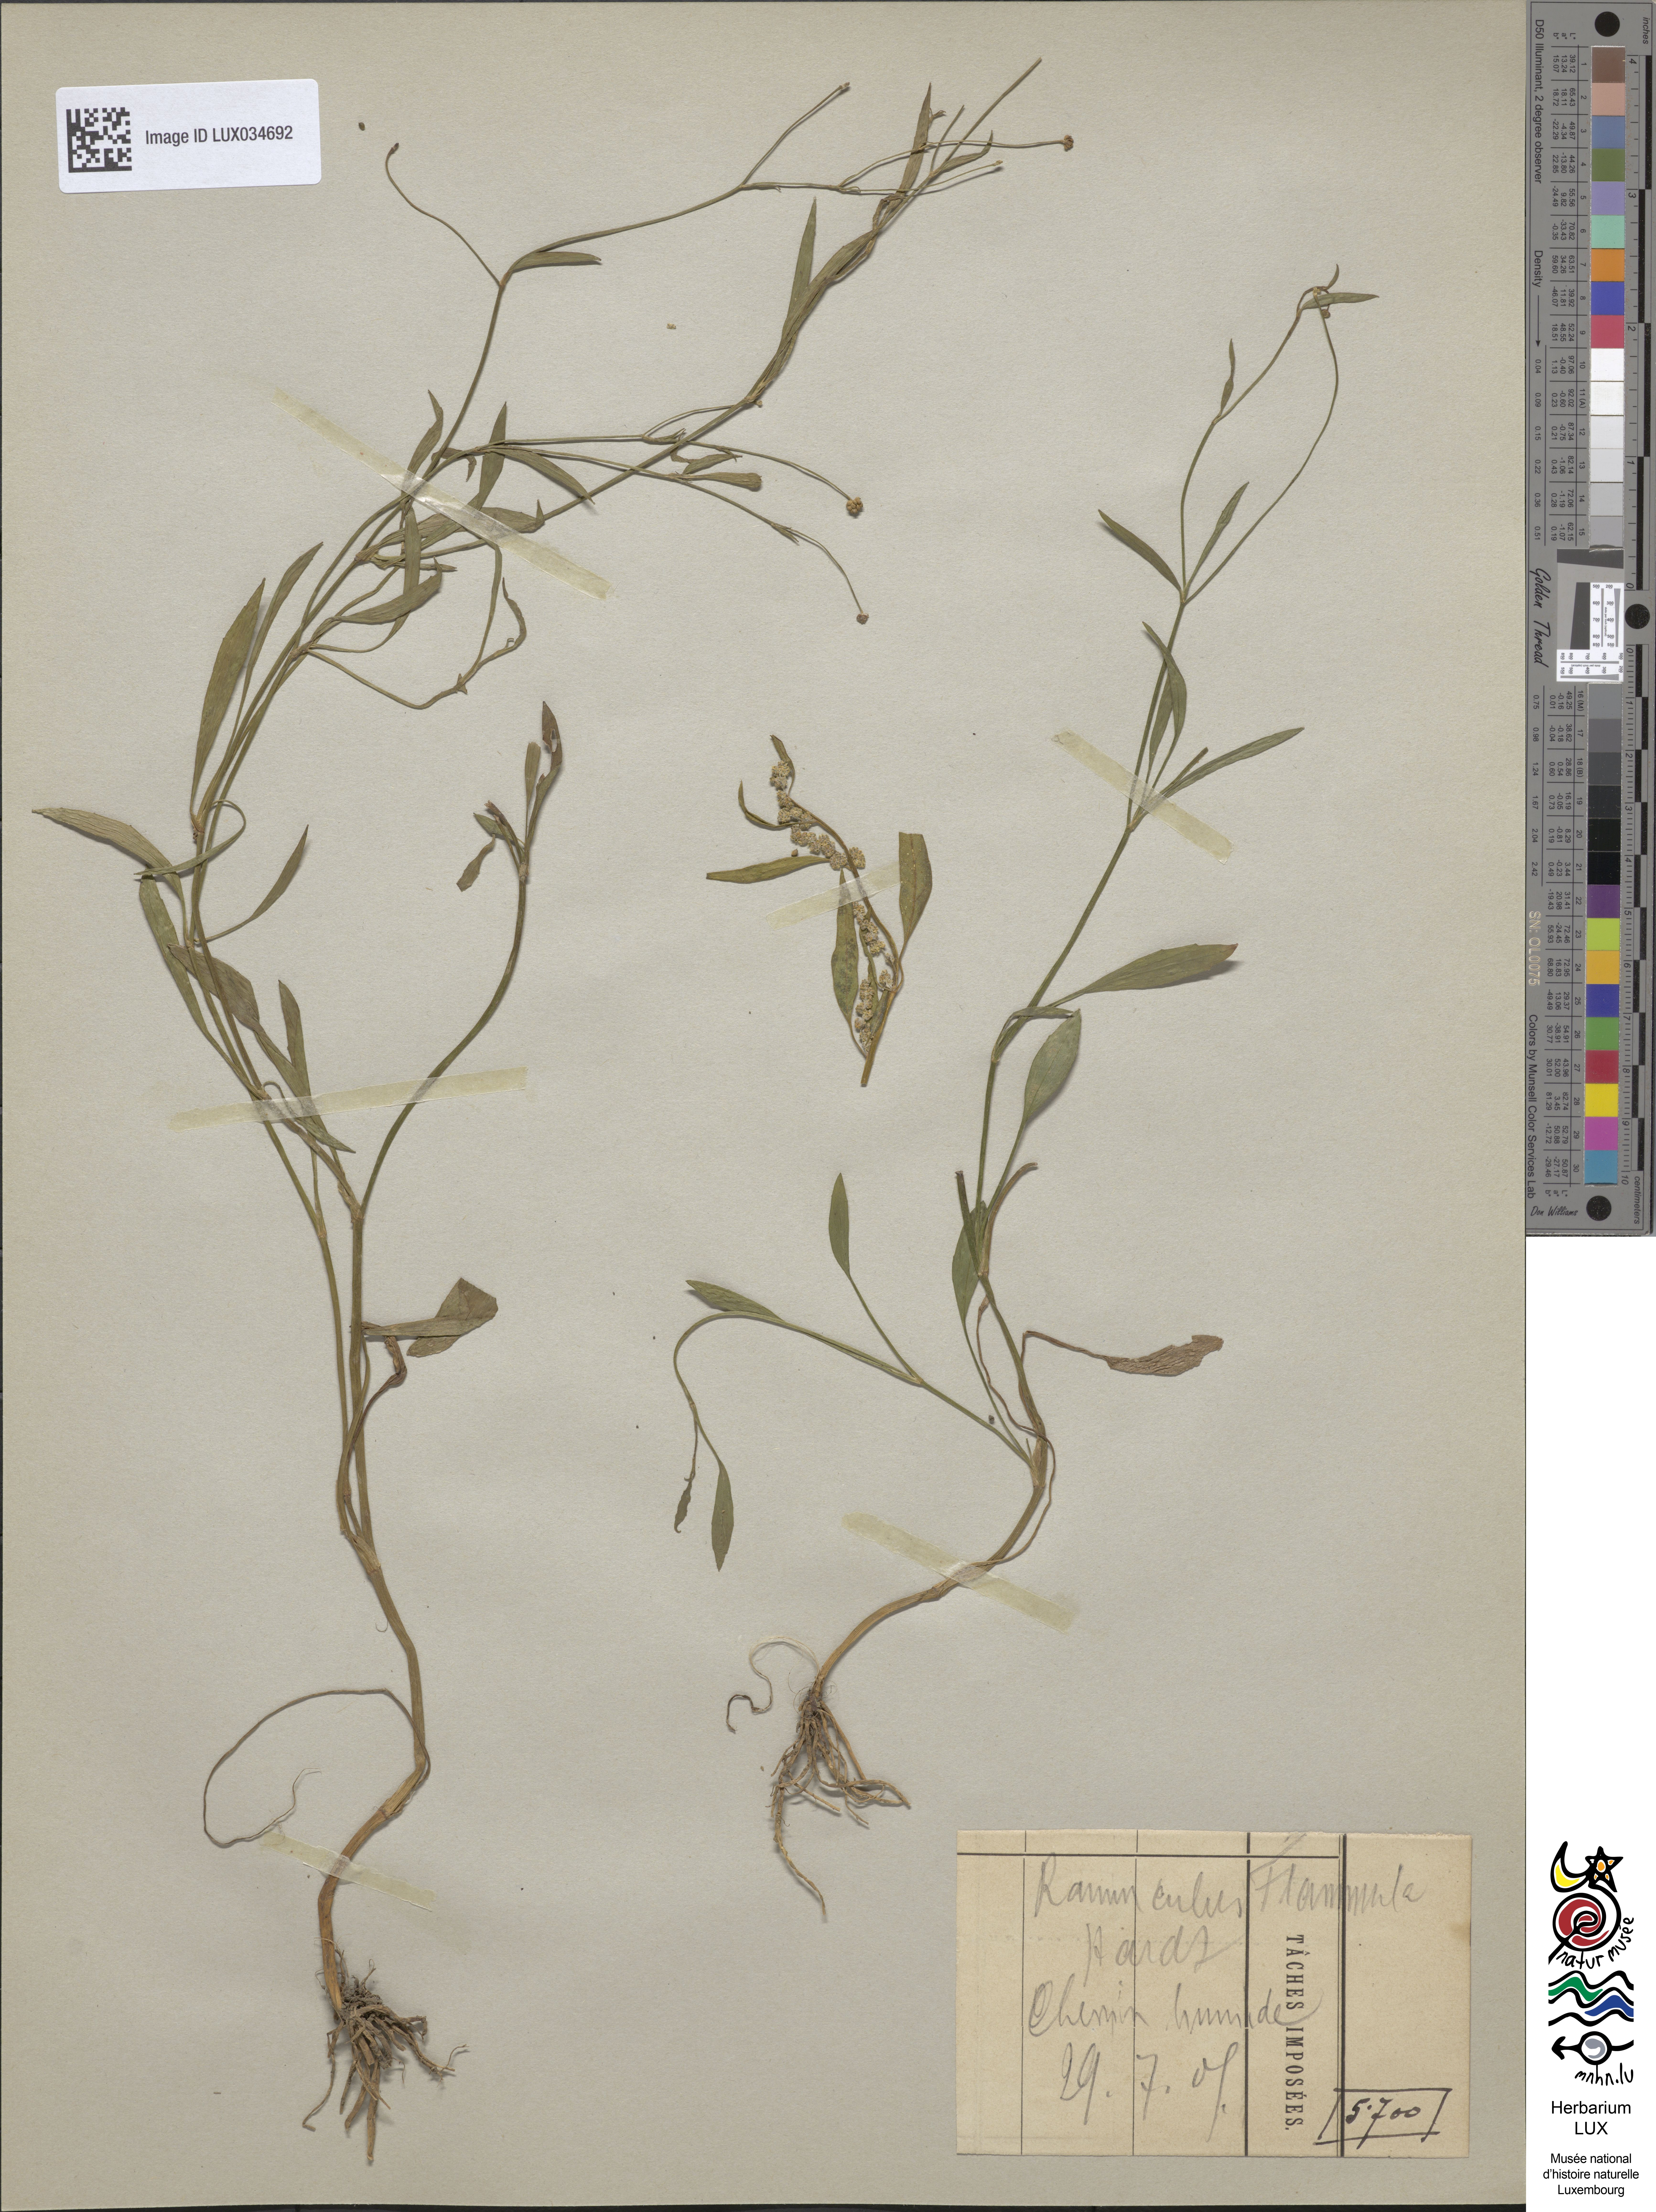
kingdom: Plantae
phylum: Tracheophyta
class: Magnoliopsida
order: Ranunculales
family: Ranunculaceae
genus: Ranunculus
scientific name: Ranunculus flammula
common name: Lesser spearwort
